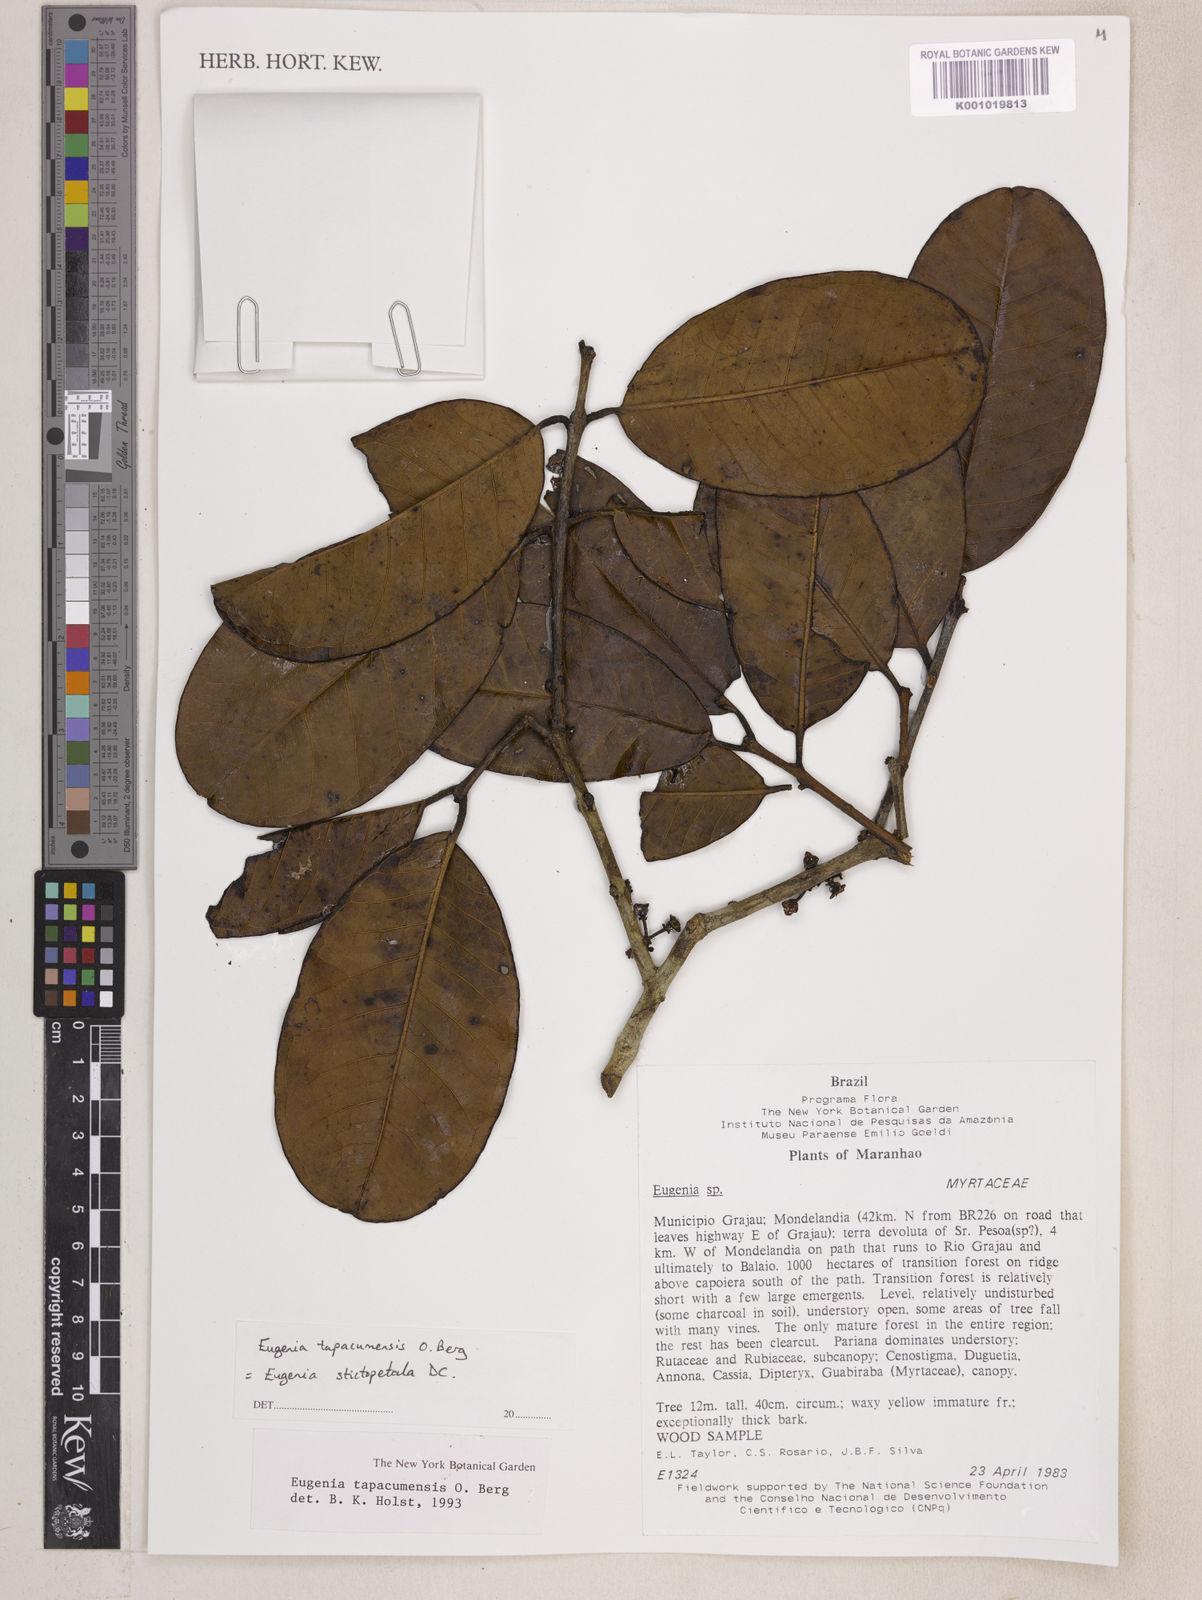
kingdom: Plantae
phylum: Tracheophyta
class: Magnoliopsida
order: Myrtales
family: Myrtaceae
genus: Eugenia
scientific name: Eugenia stictopetala
